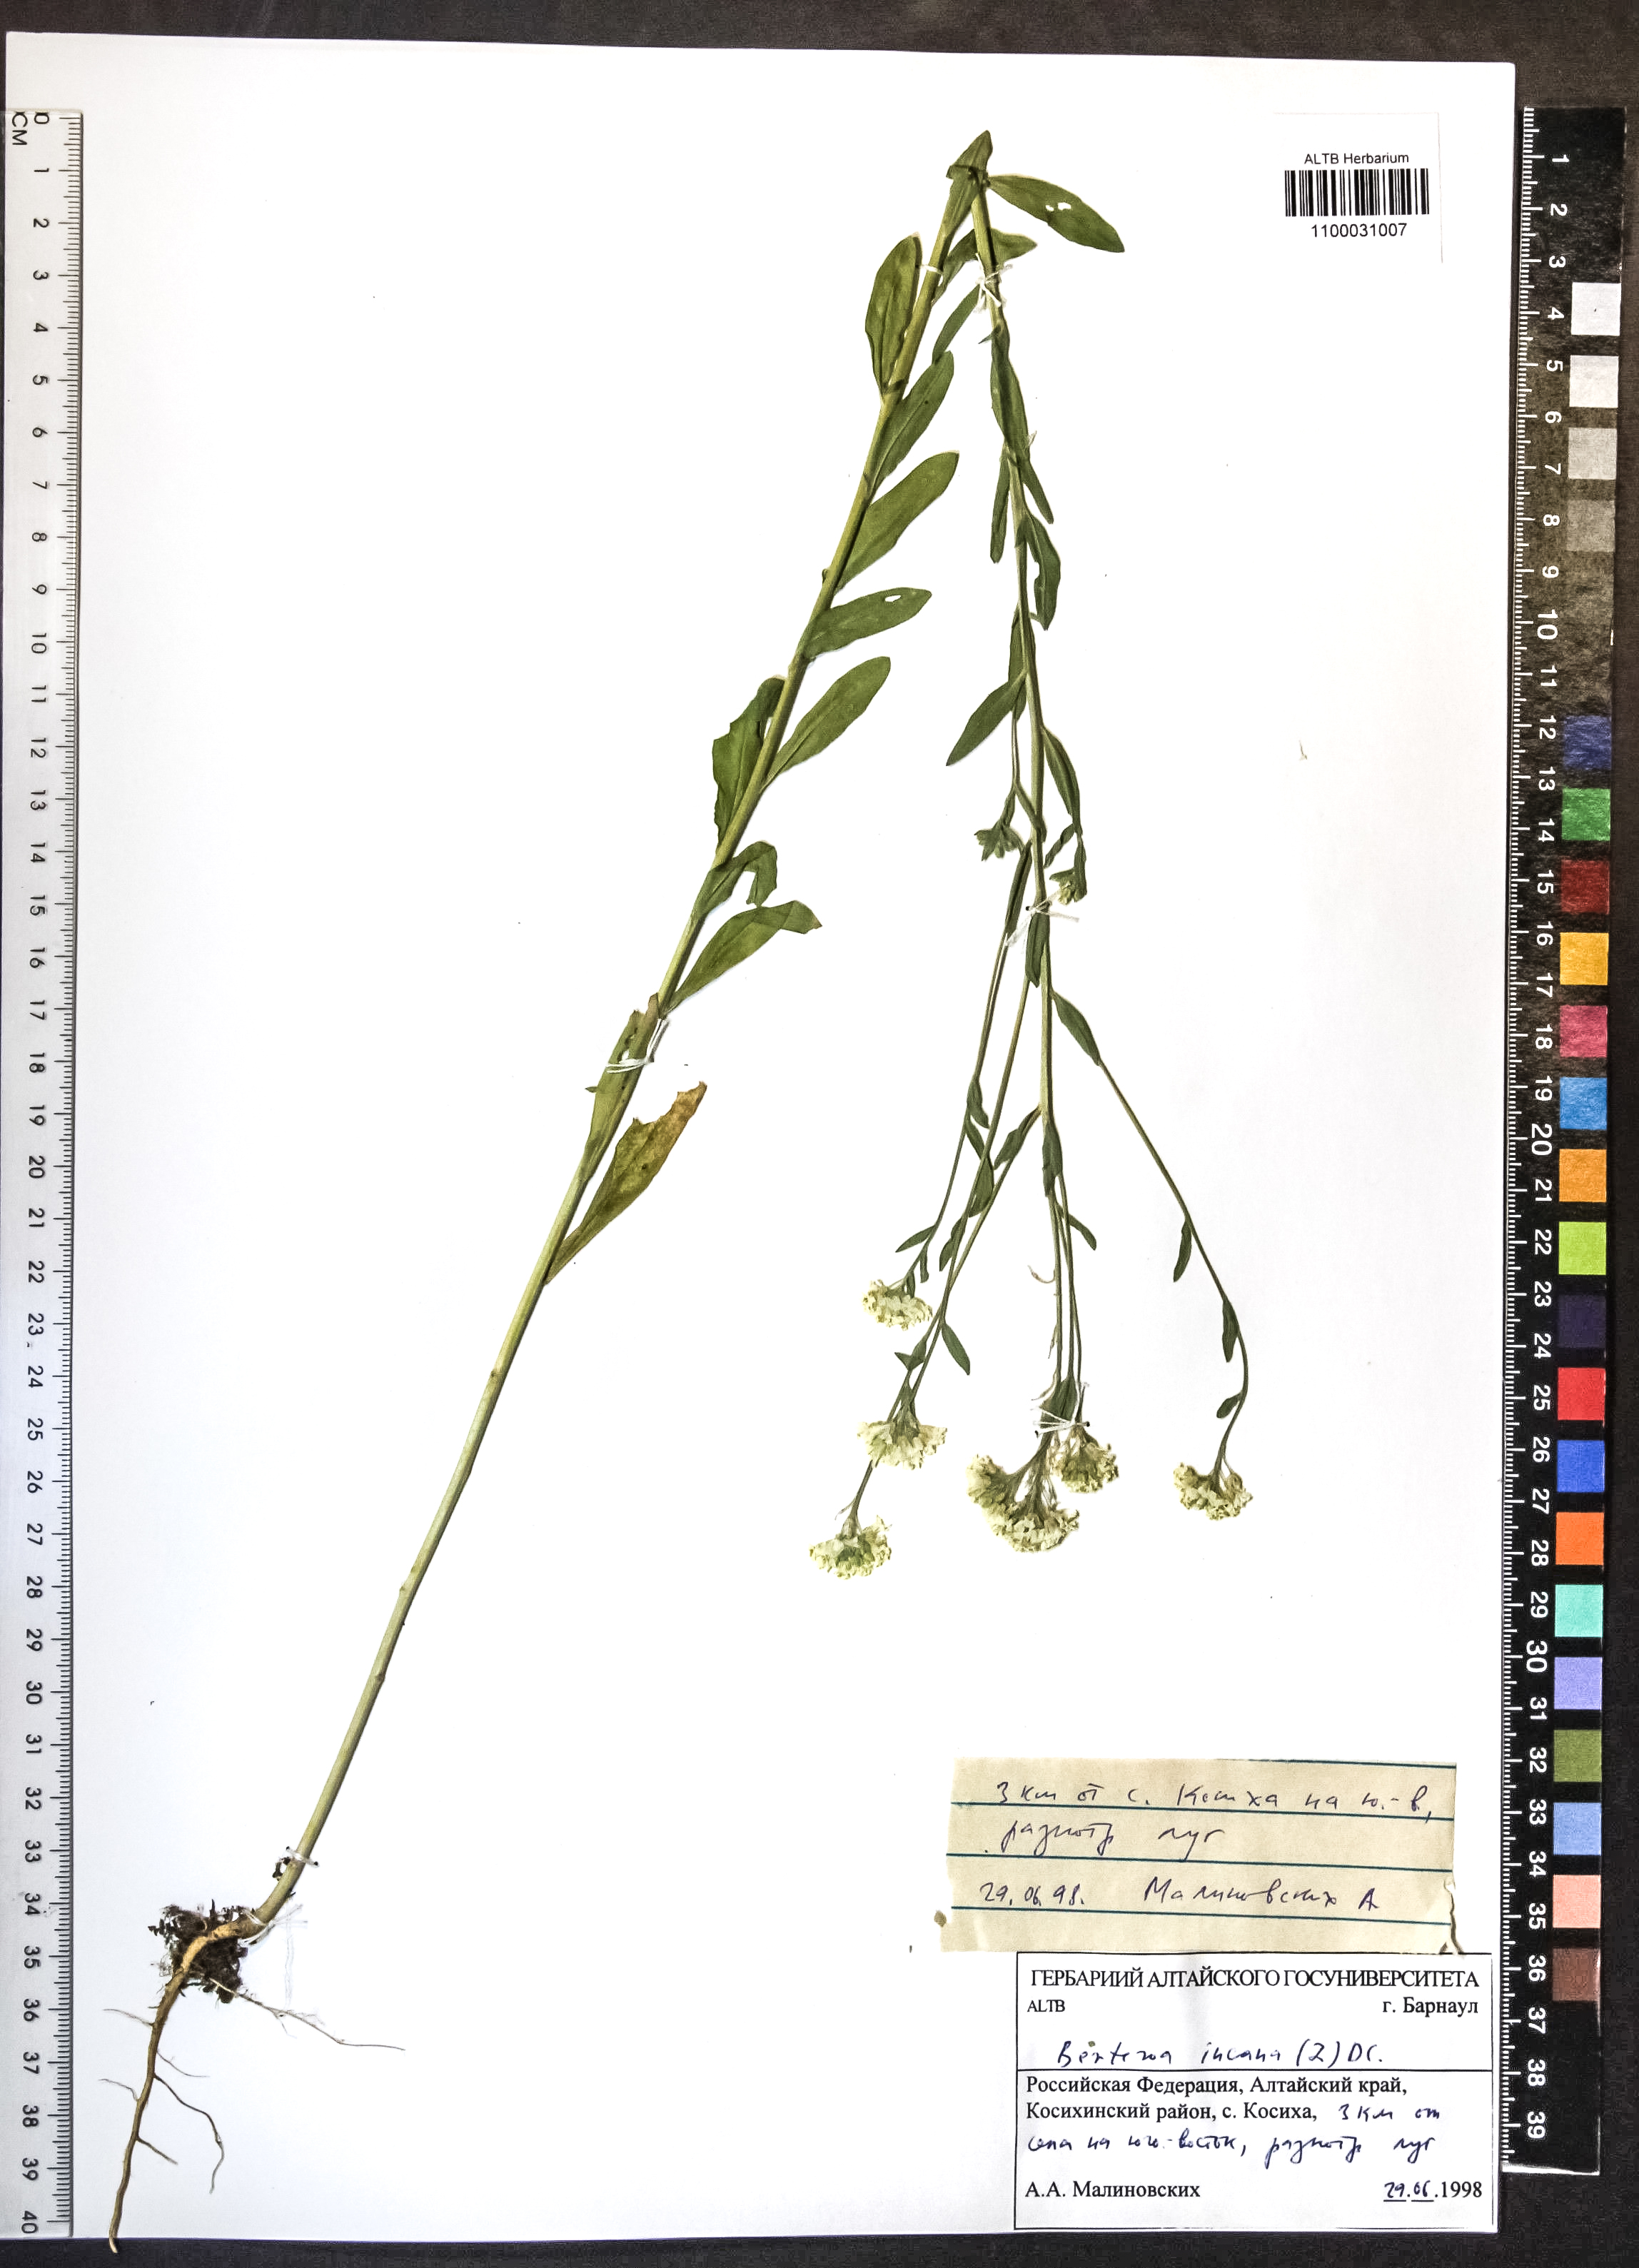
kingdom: Plantae
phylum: Tracheophyta
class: Magnoliopsida
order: Brassicales
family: Brassicaceae
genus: Berteroa
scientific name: Berteroa incana
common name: Hoary alison
